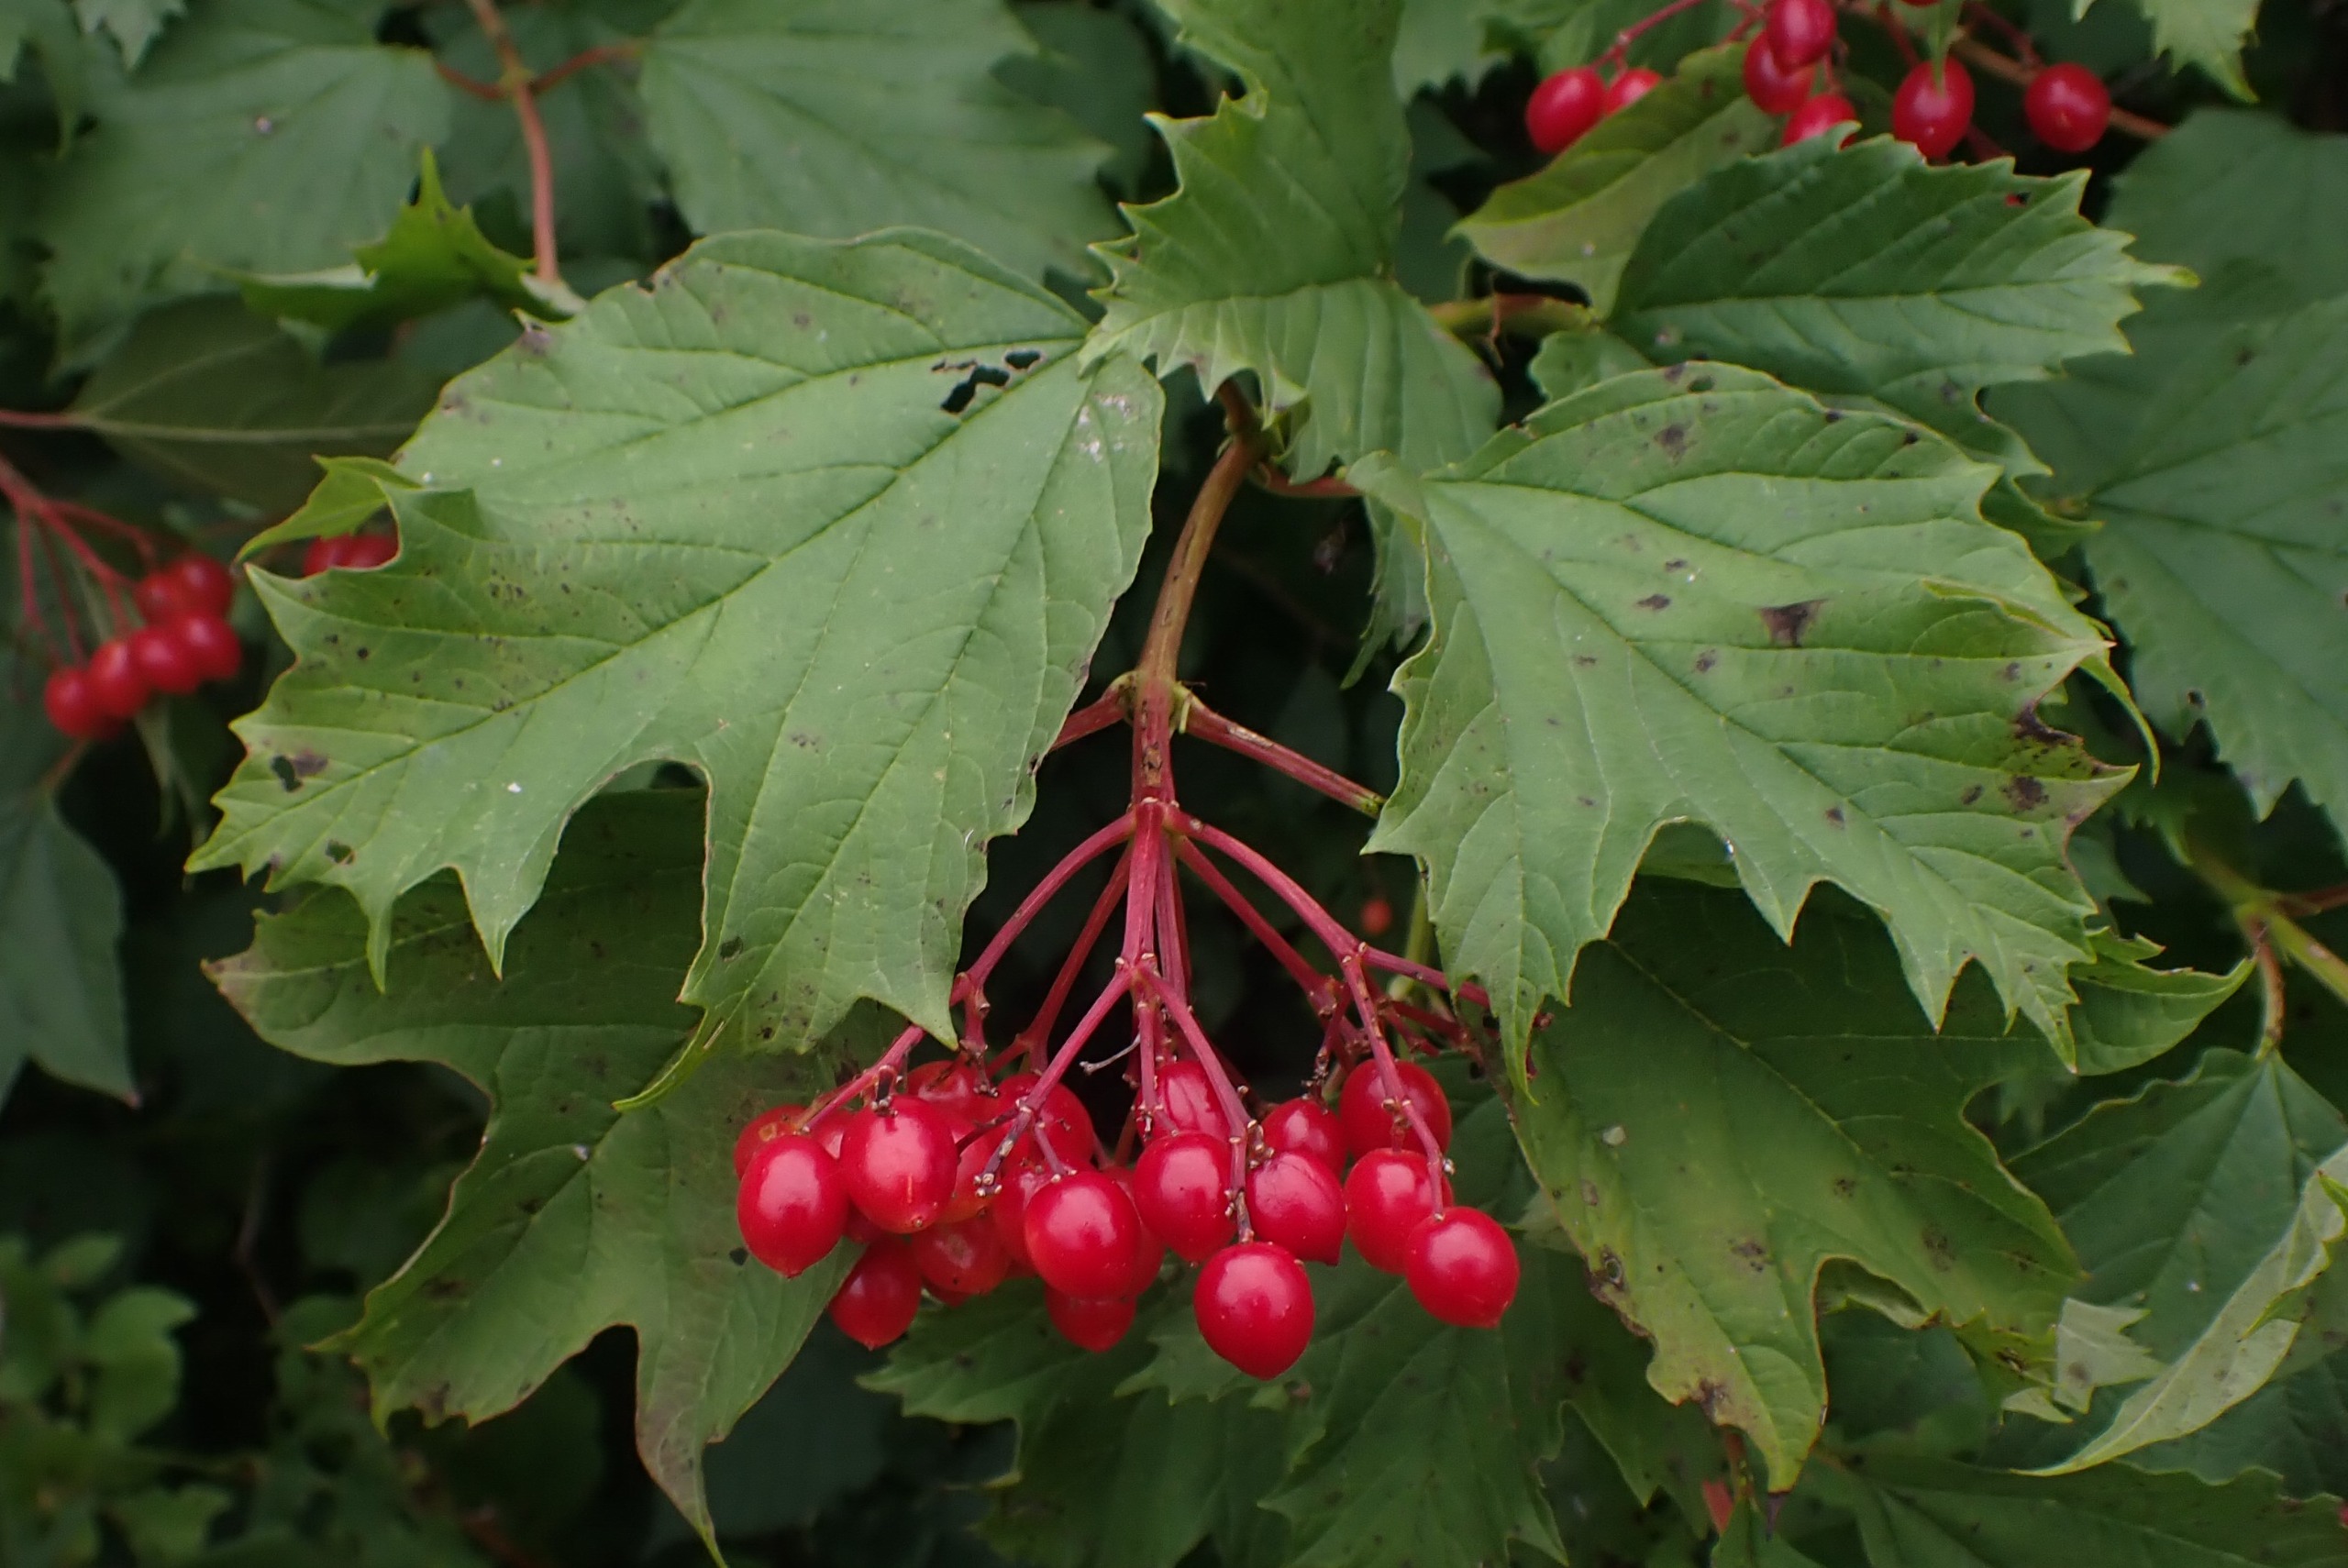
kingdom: Plantae
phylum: Tracheophyta
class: Magnoliopsida
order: Dipsacales
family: Viburnaceae
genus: Viburnum
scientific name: Viburnum opulus
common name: Kvalkved
